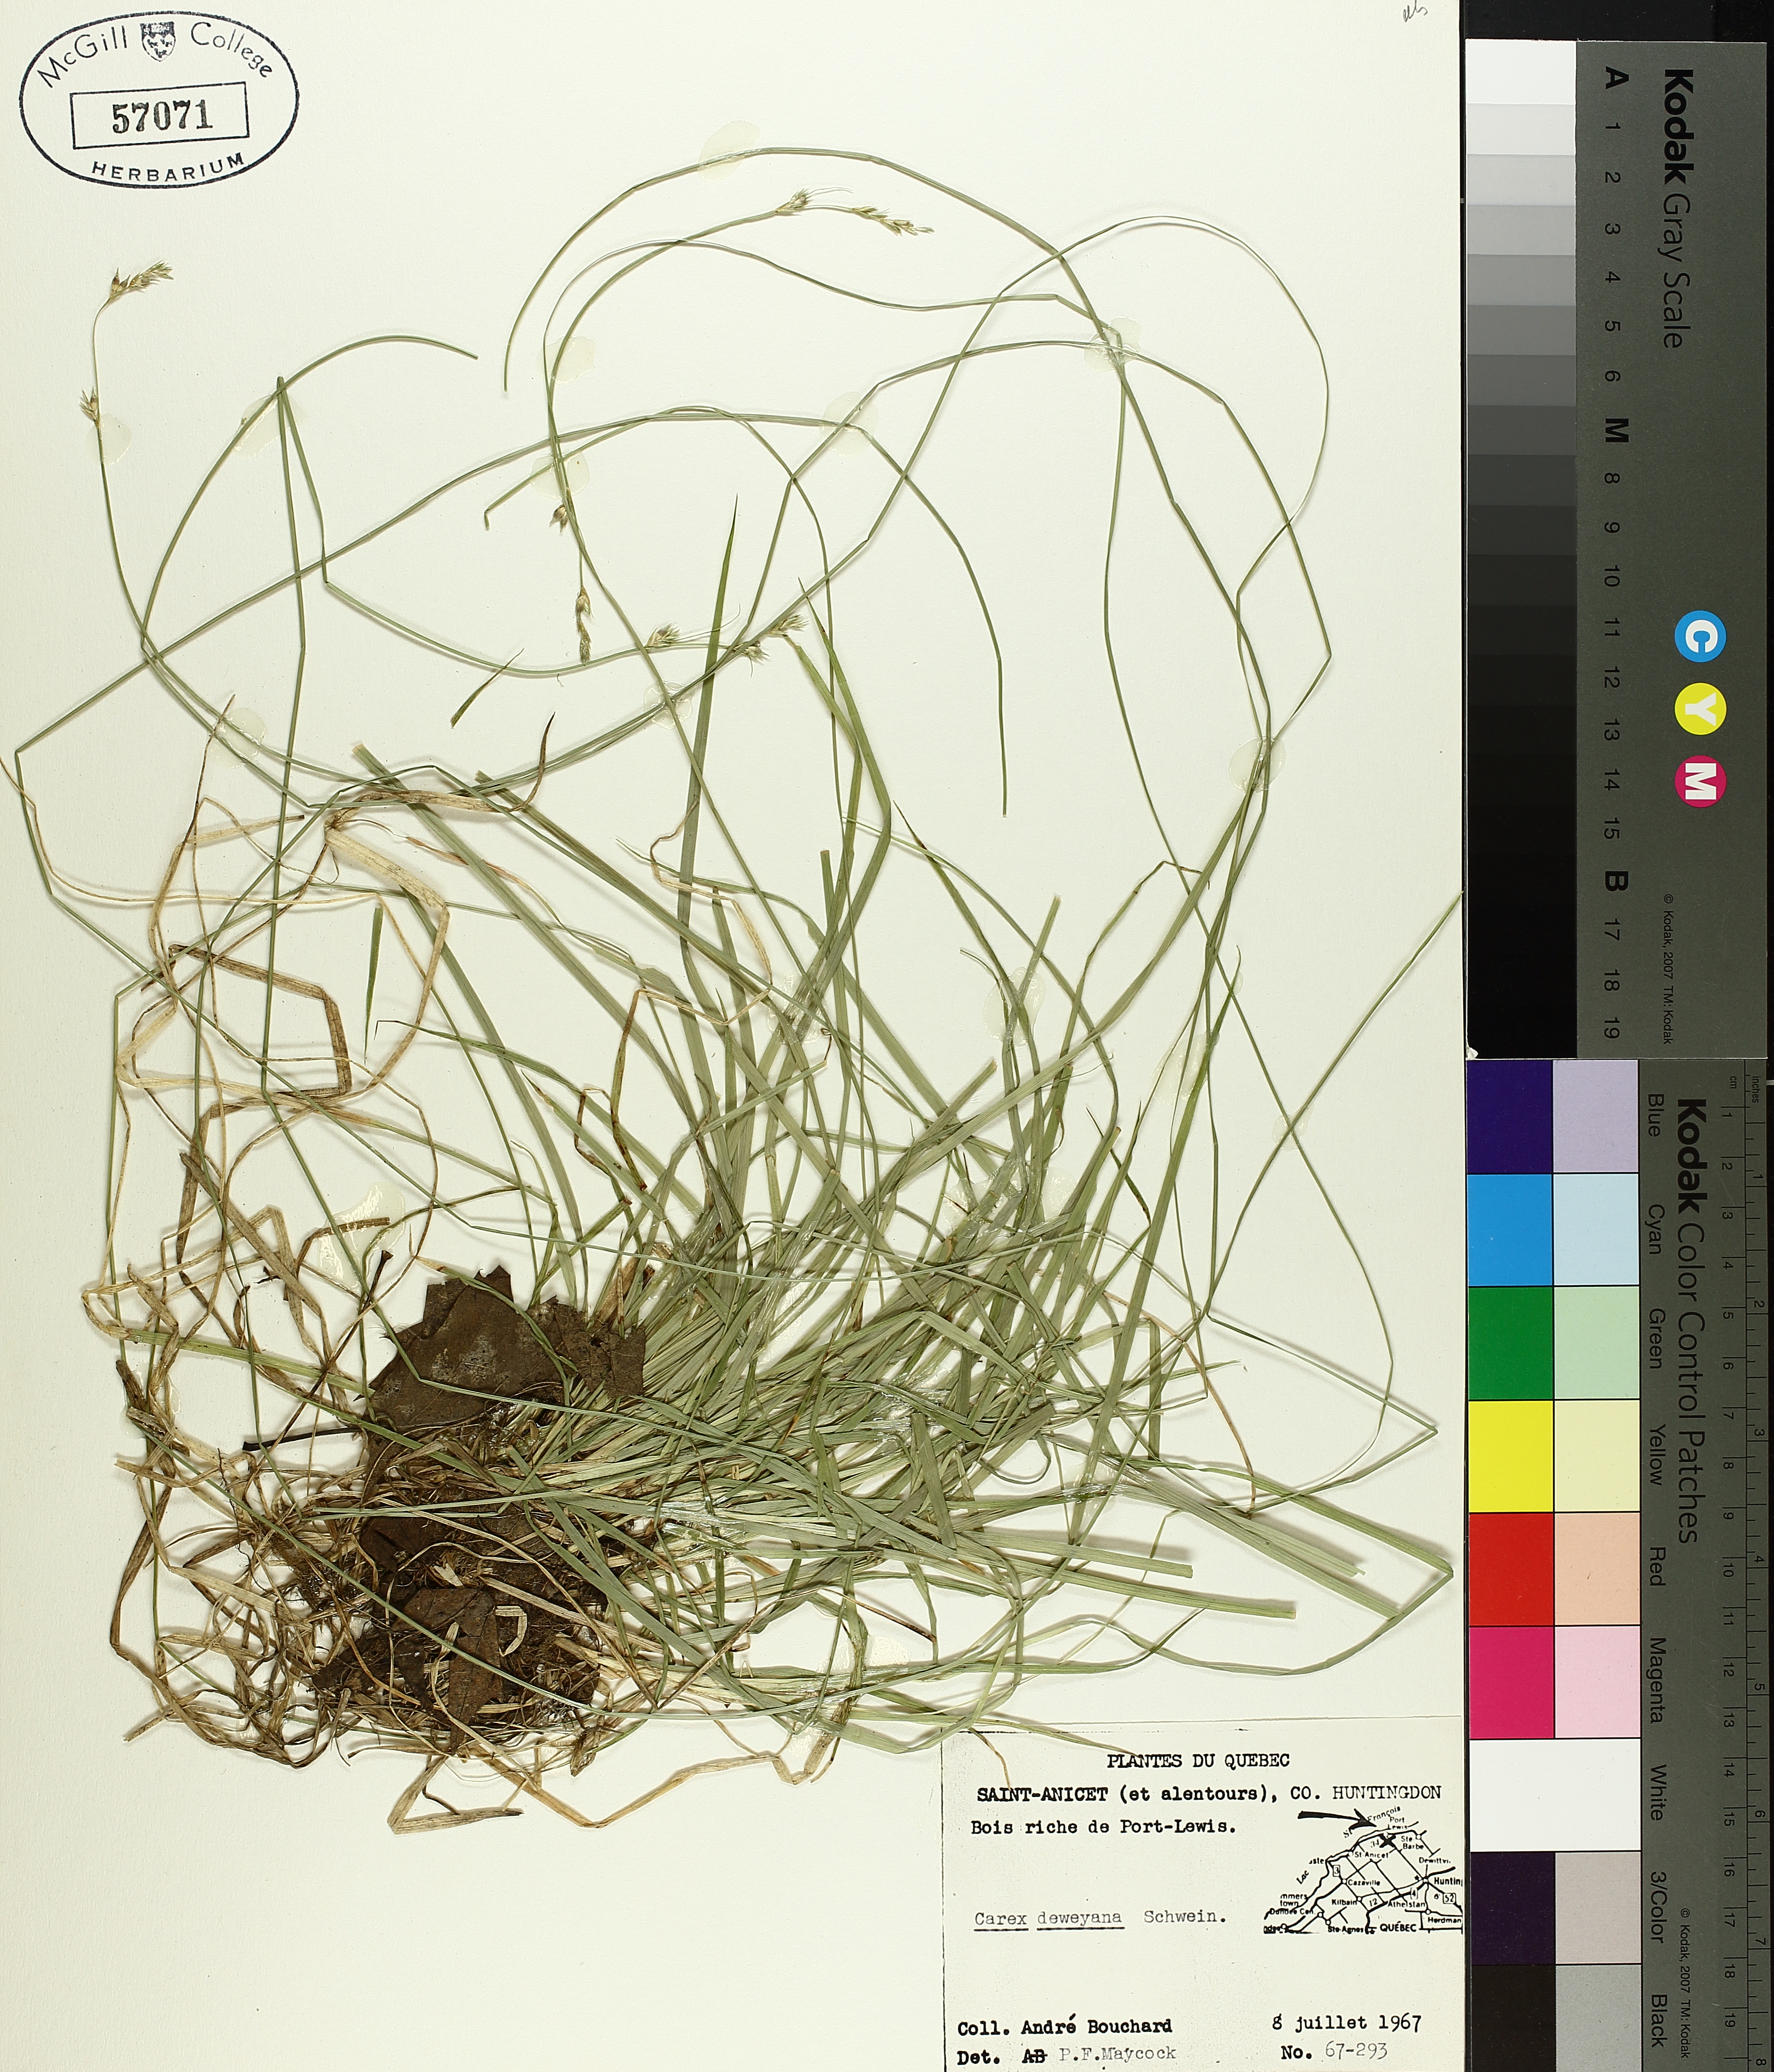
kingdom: Plantae
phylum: Tracheophyta
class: Liliopsida
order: Poales
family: Cyperaceae
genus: Carex
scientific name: Carex deweyana
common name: Dewey's sedge
